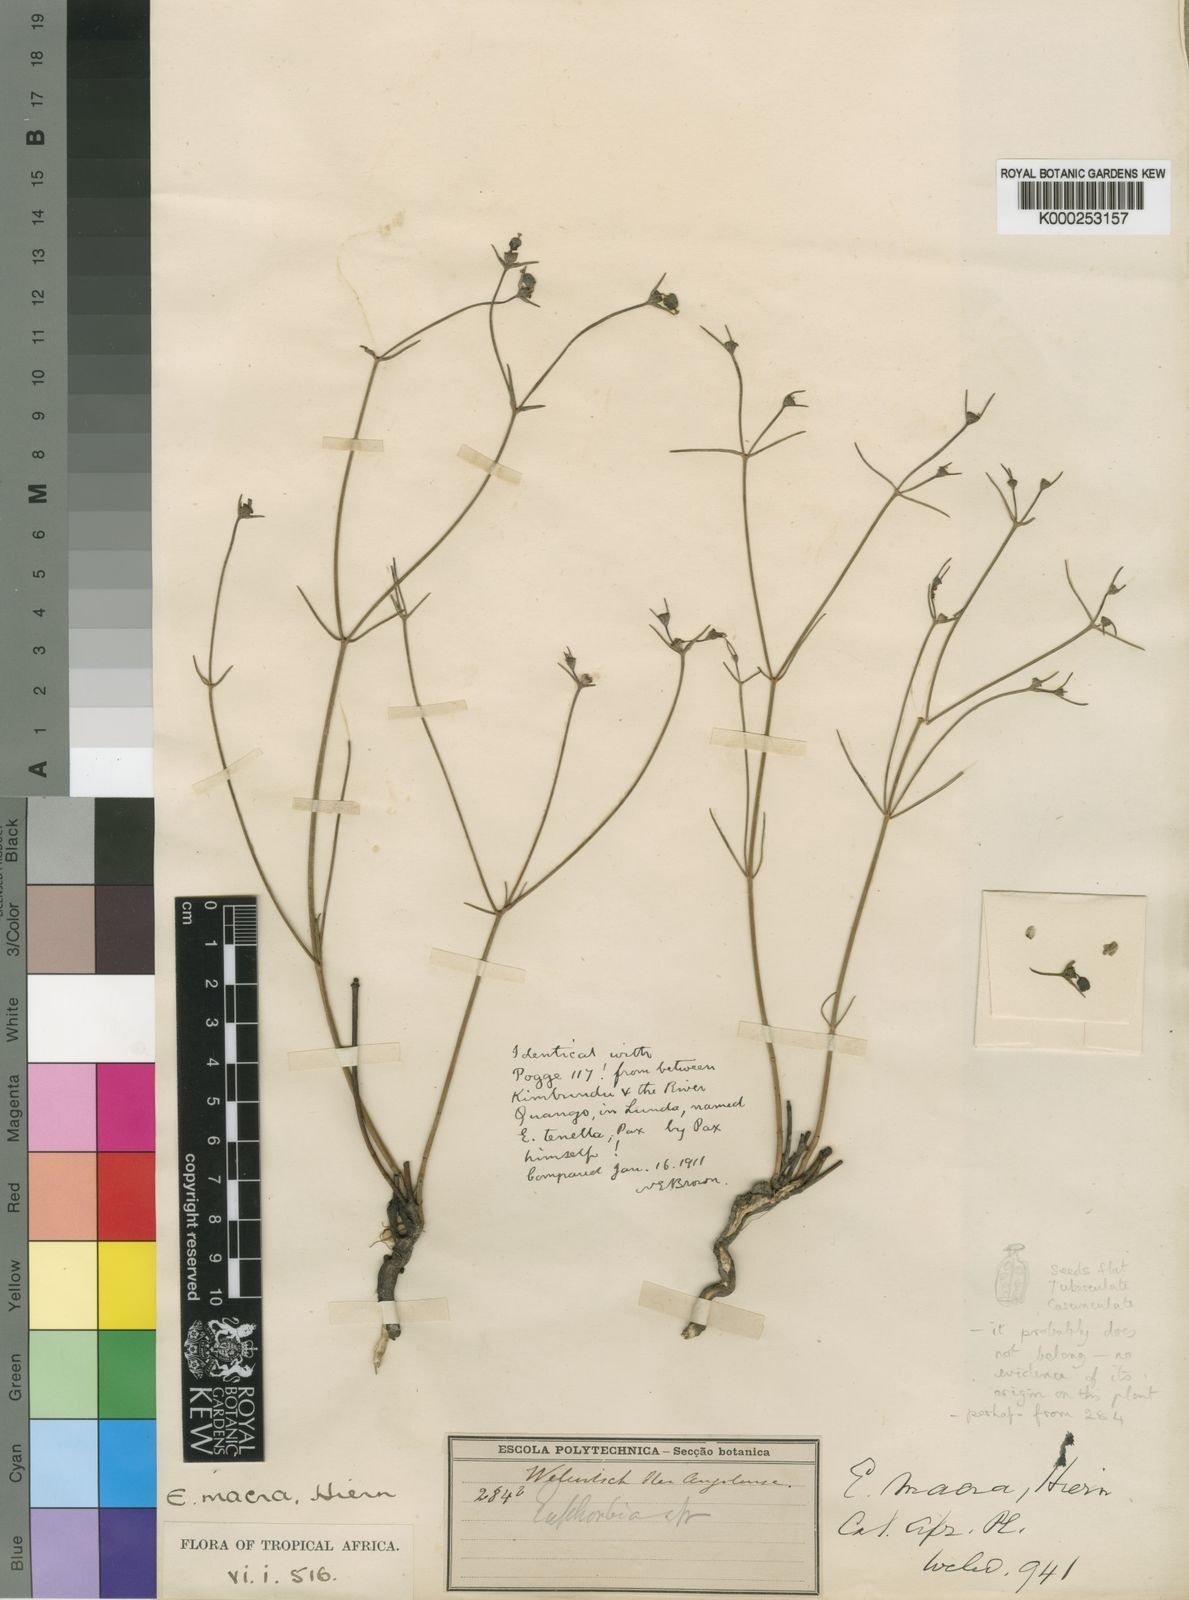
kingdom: Plantae
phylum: Tracheophyta
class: Magnoliopsida
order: Malpighiales
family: Euphorbiaceae
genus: Euphorbia
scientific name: Euphorbia macra
